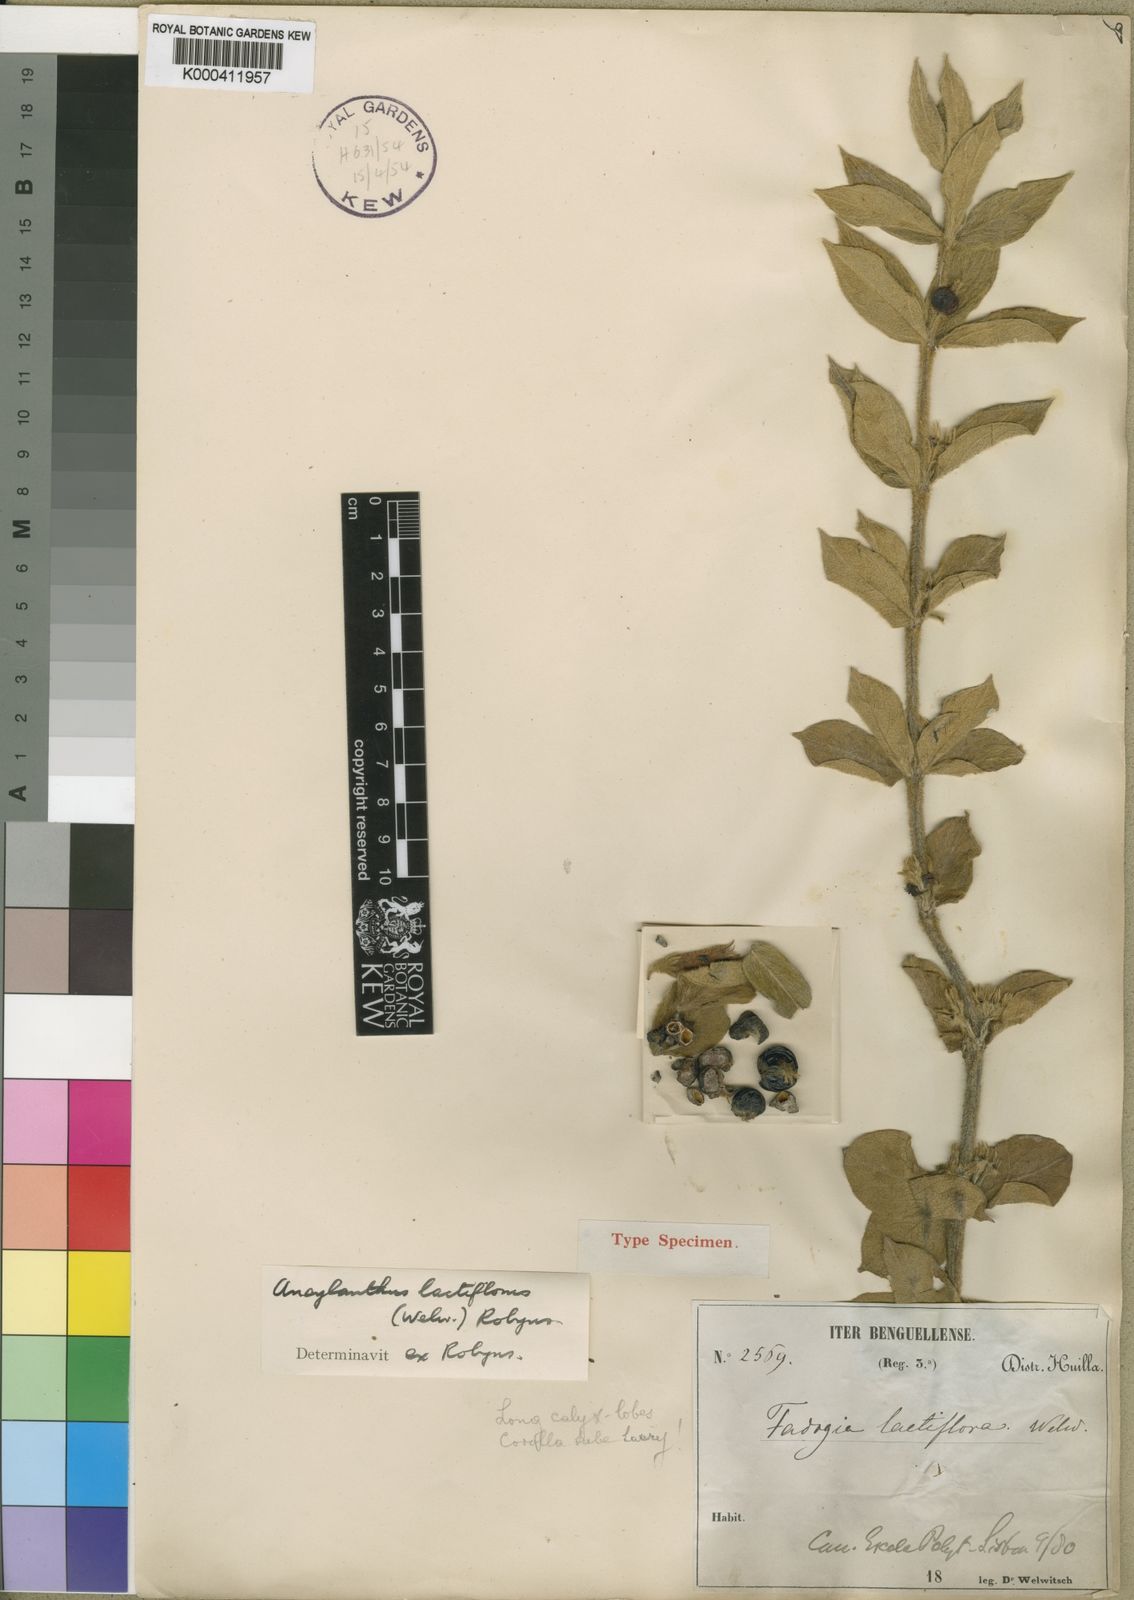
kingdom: Plantae
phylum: Tracheophyta
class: Magnoliopsida
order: Gentianales
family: Rubiaceae
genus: Fadogia
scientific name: Fadogia lactiflora
